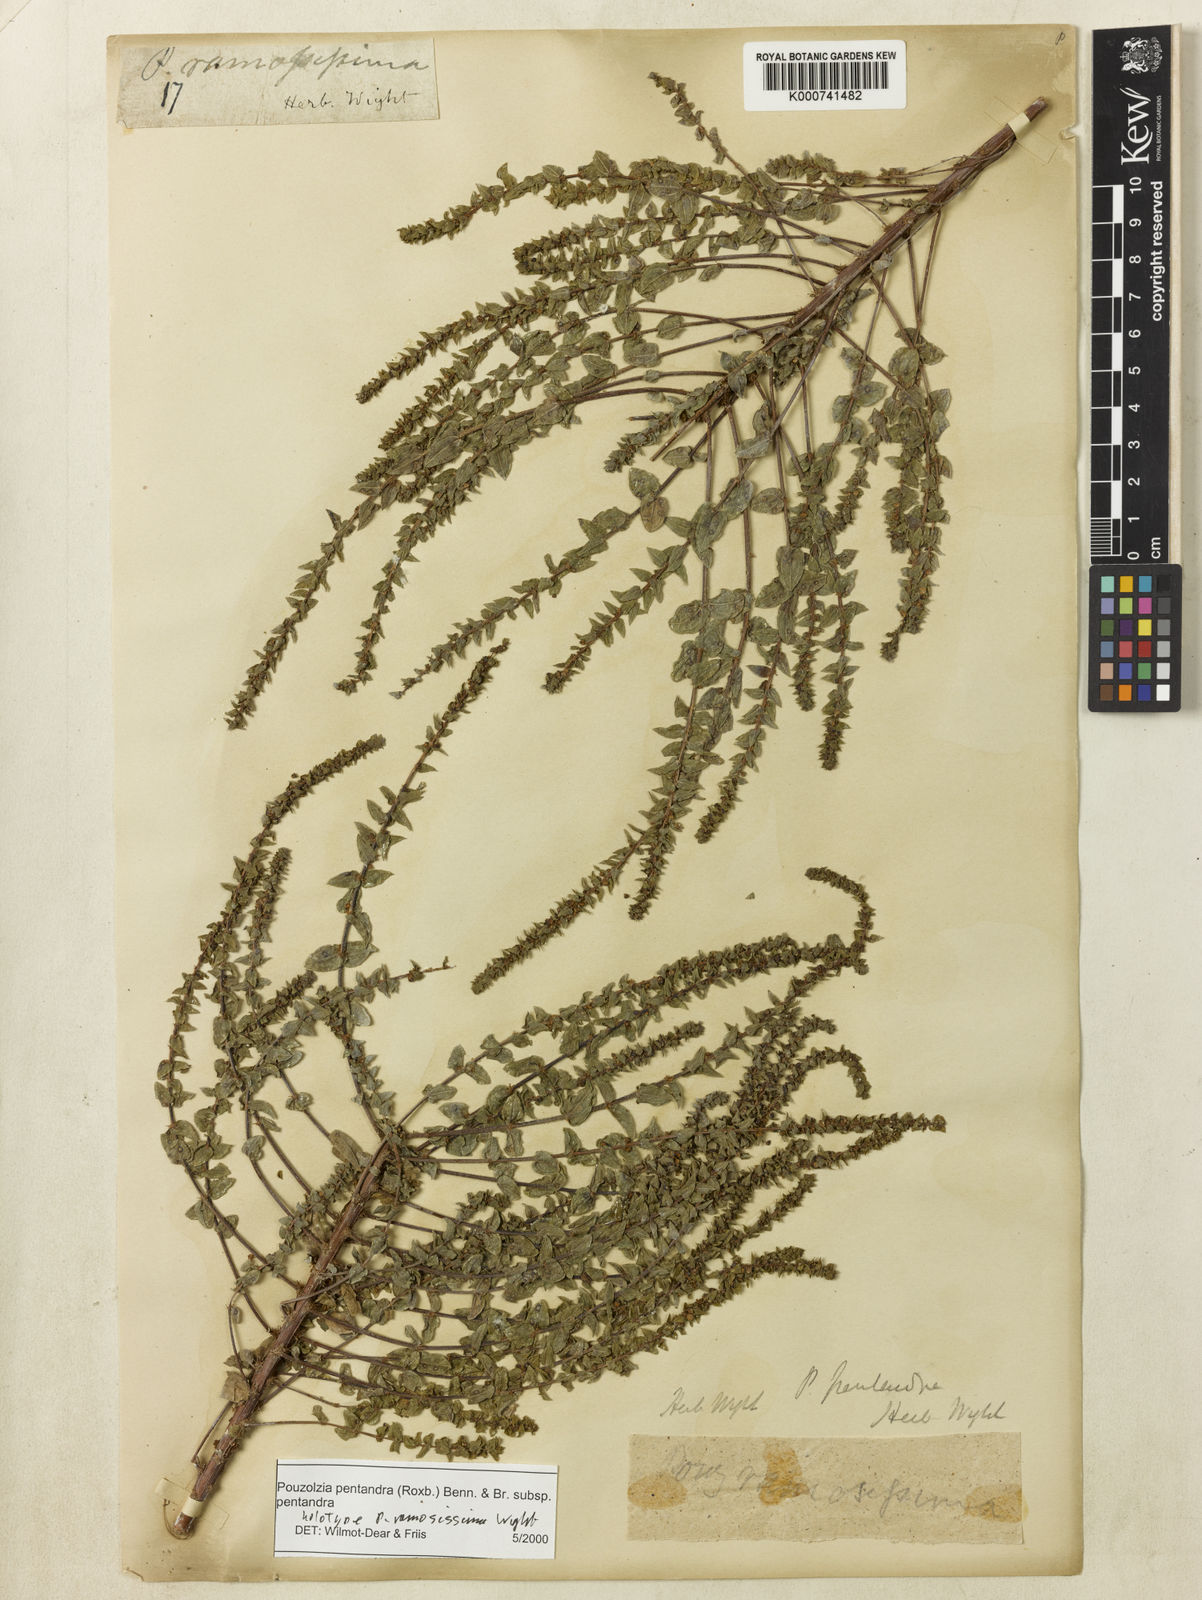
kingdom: Plantae
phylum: Tracheophyta
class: Magnoliopsida
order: Rosales
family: Urticaceae
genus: Gonostegia
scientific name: Gonostegia pentandra
